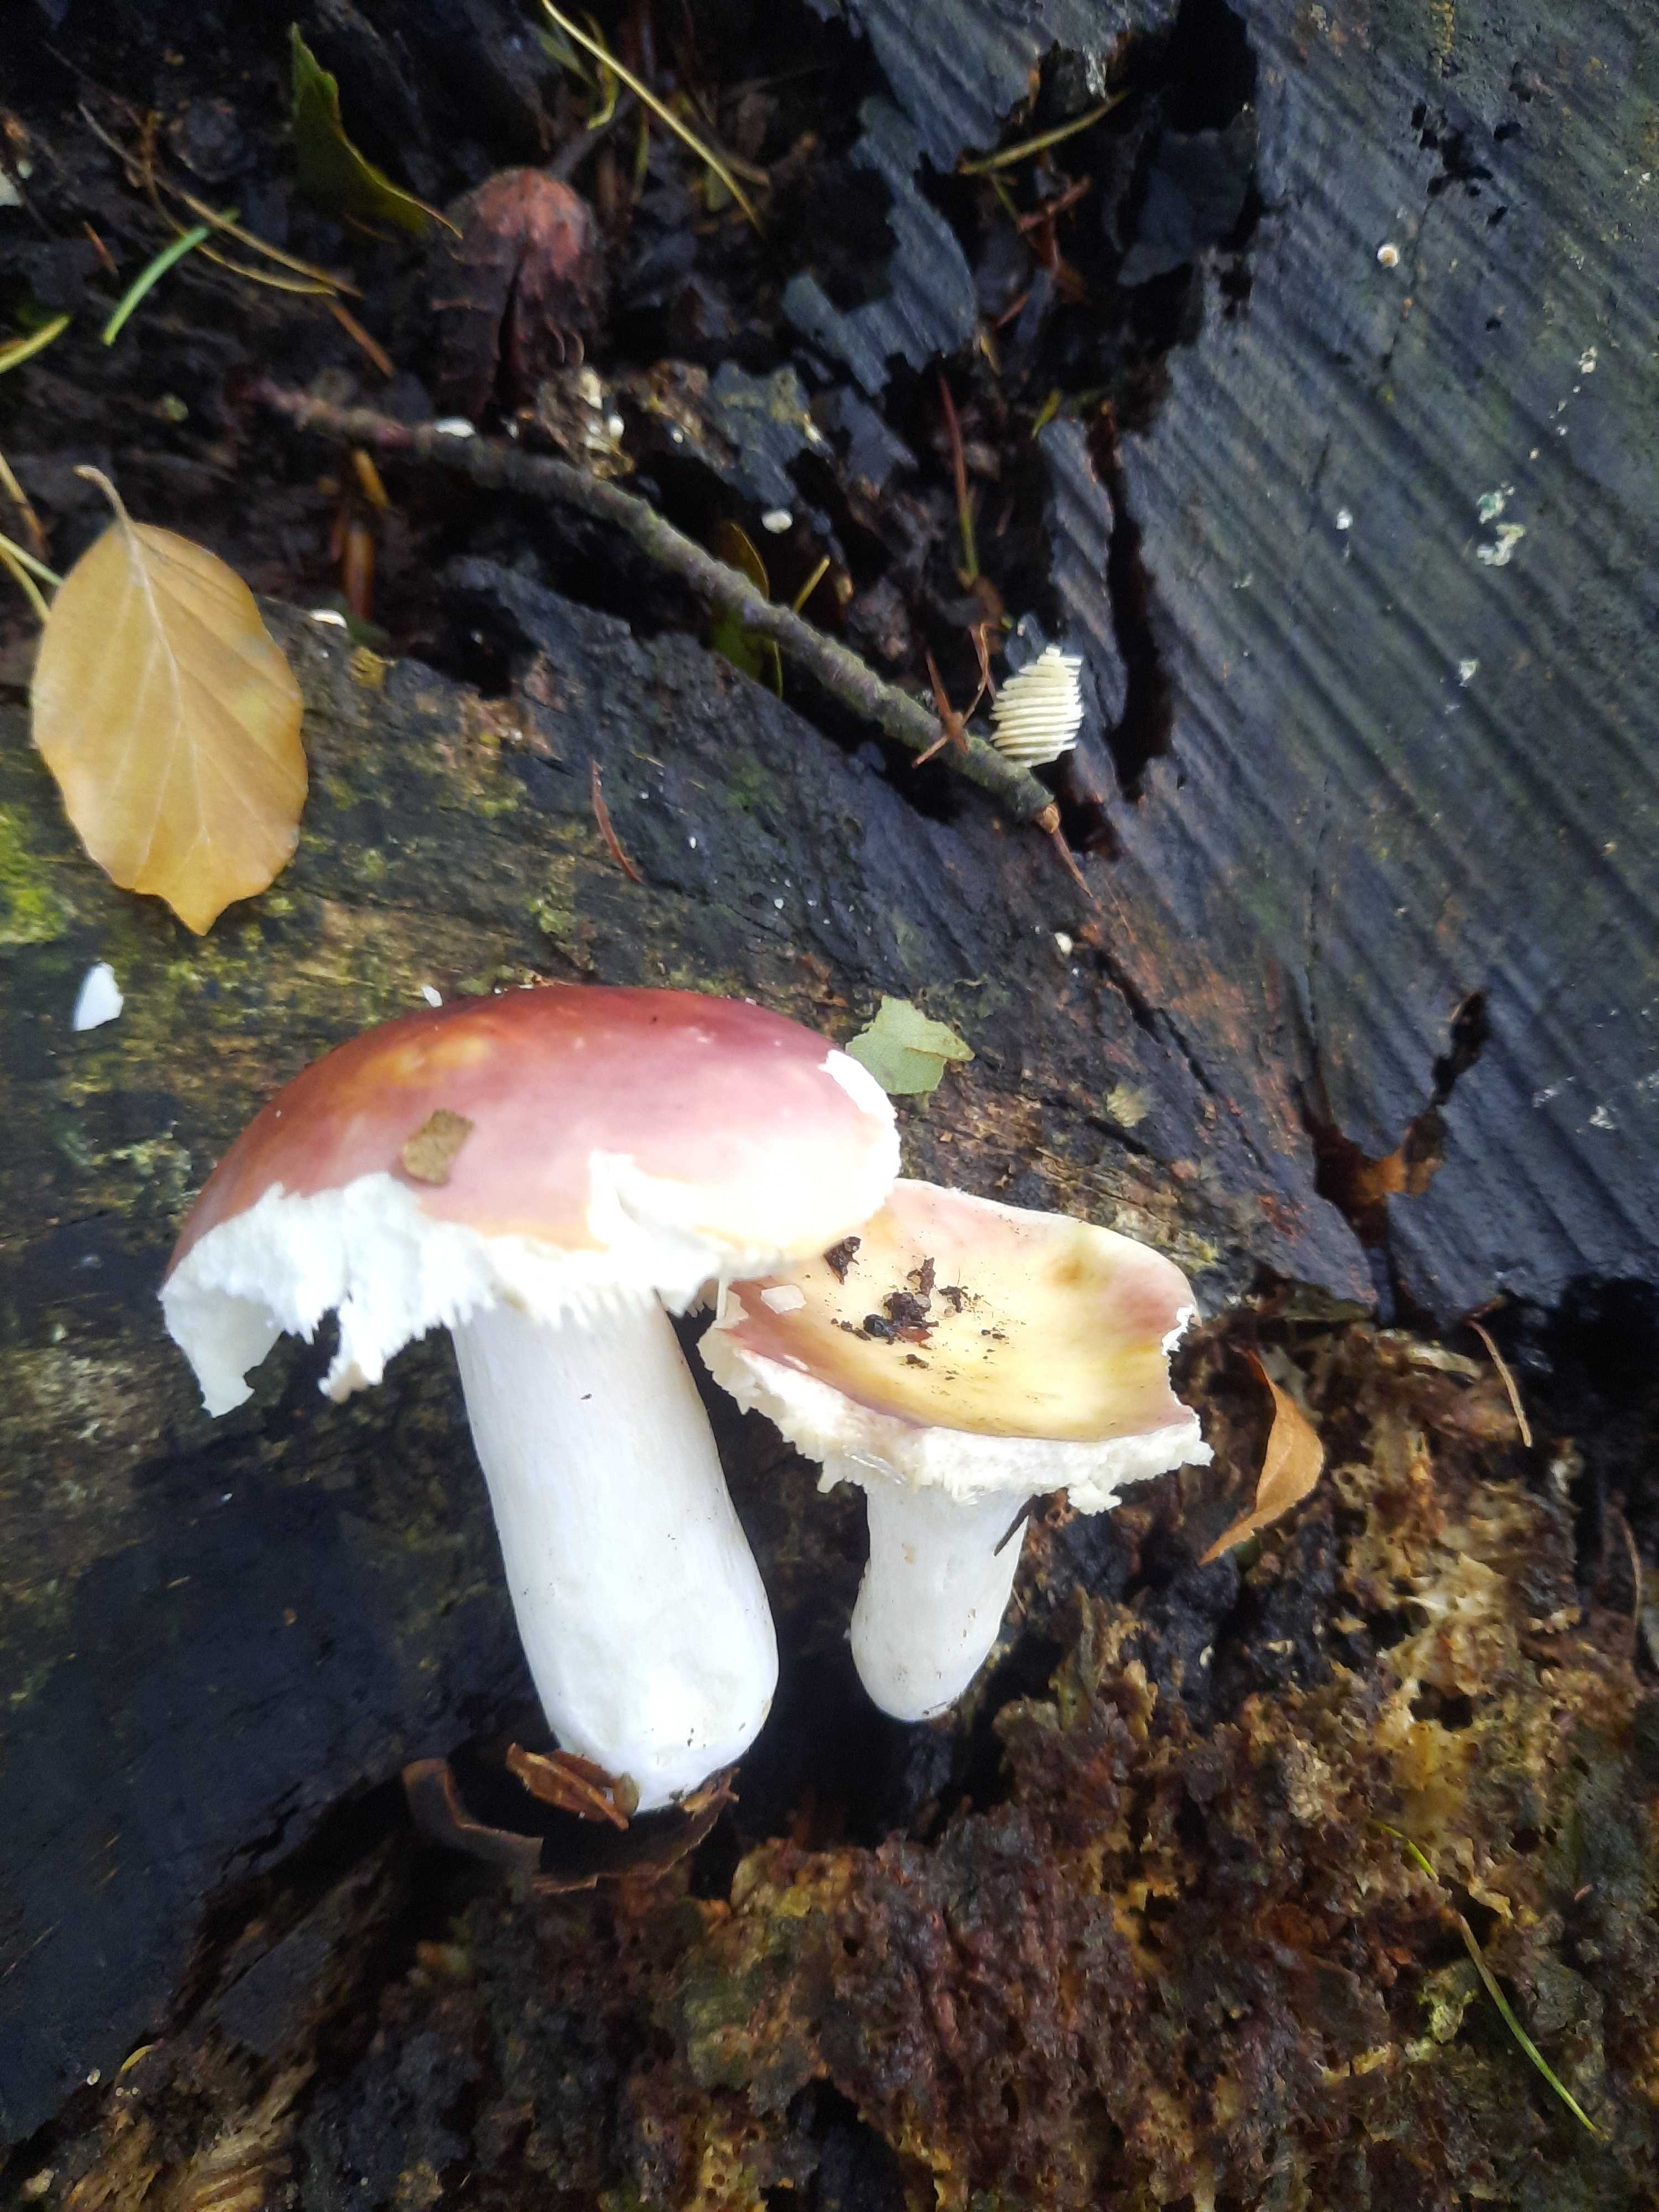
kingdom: Fungi
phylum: Basidiomycota
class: Agaricomycetes
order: Russulales
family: Russulaceae
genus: Russula
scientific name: Russula vesca
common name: spiselig skørhat
